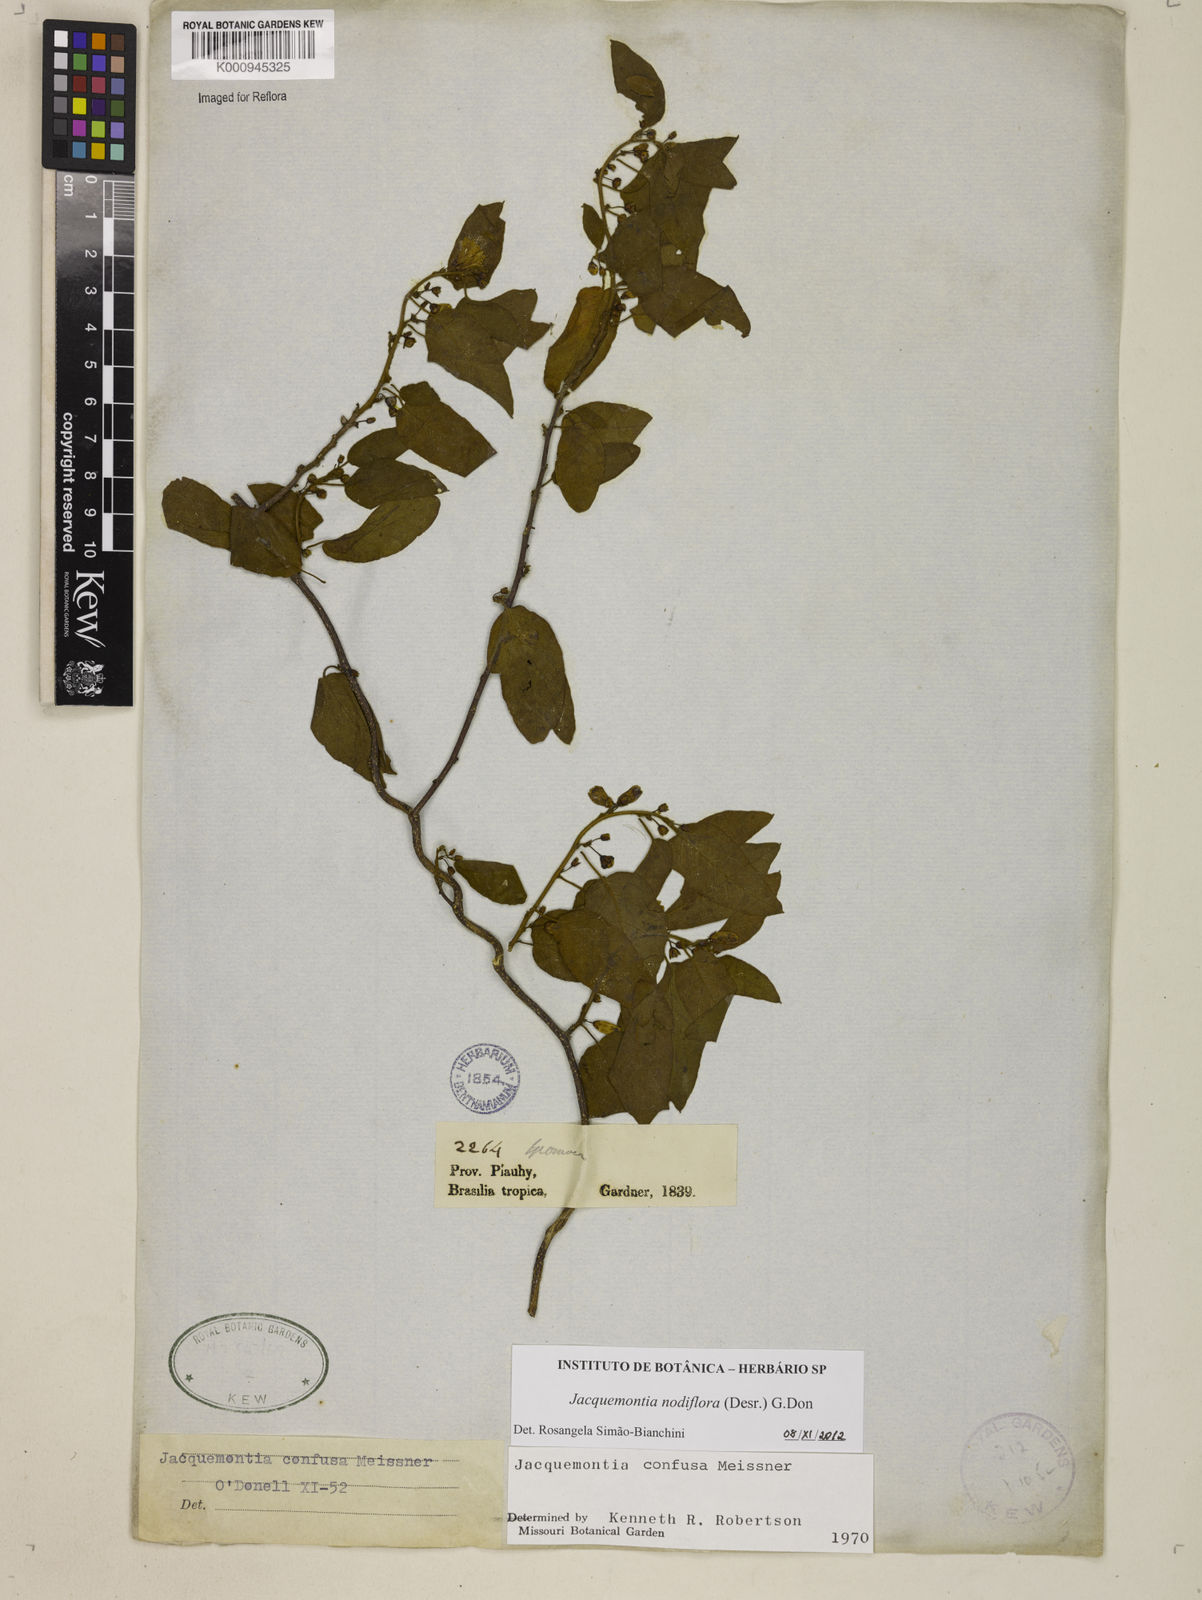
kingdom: Plantae
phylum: Tracheophyta
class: Magnoliopsida
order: Solanales
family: Convolvulaceae
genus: Jacquemontia
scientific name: Jacquemontia nodiflora
